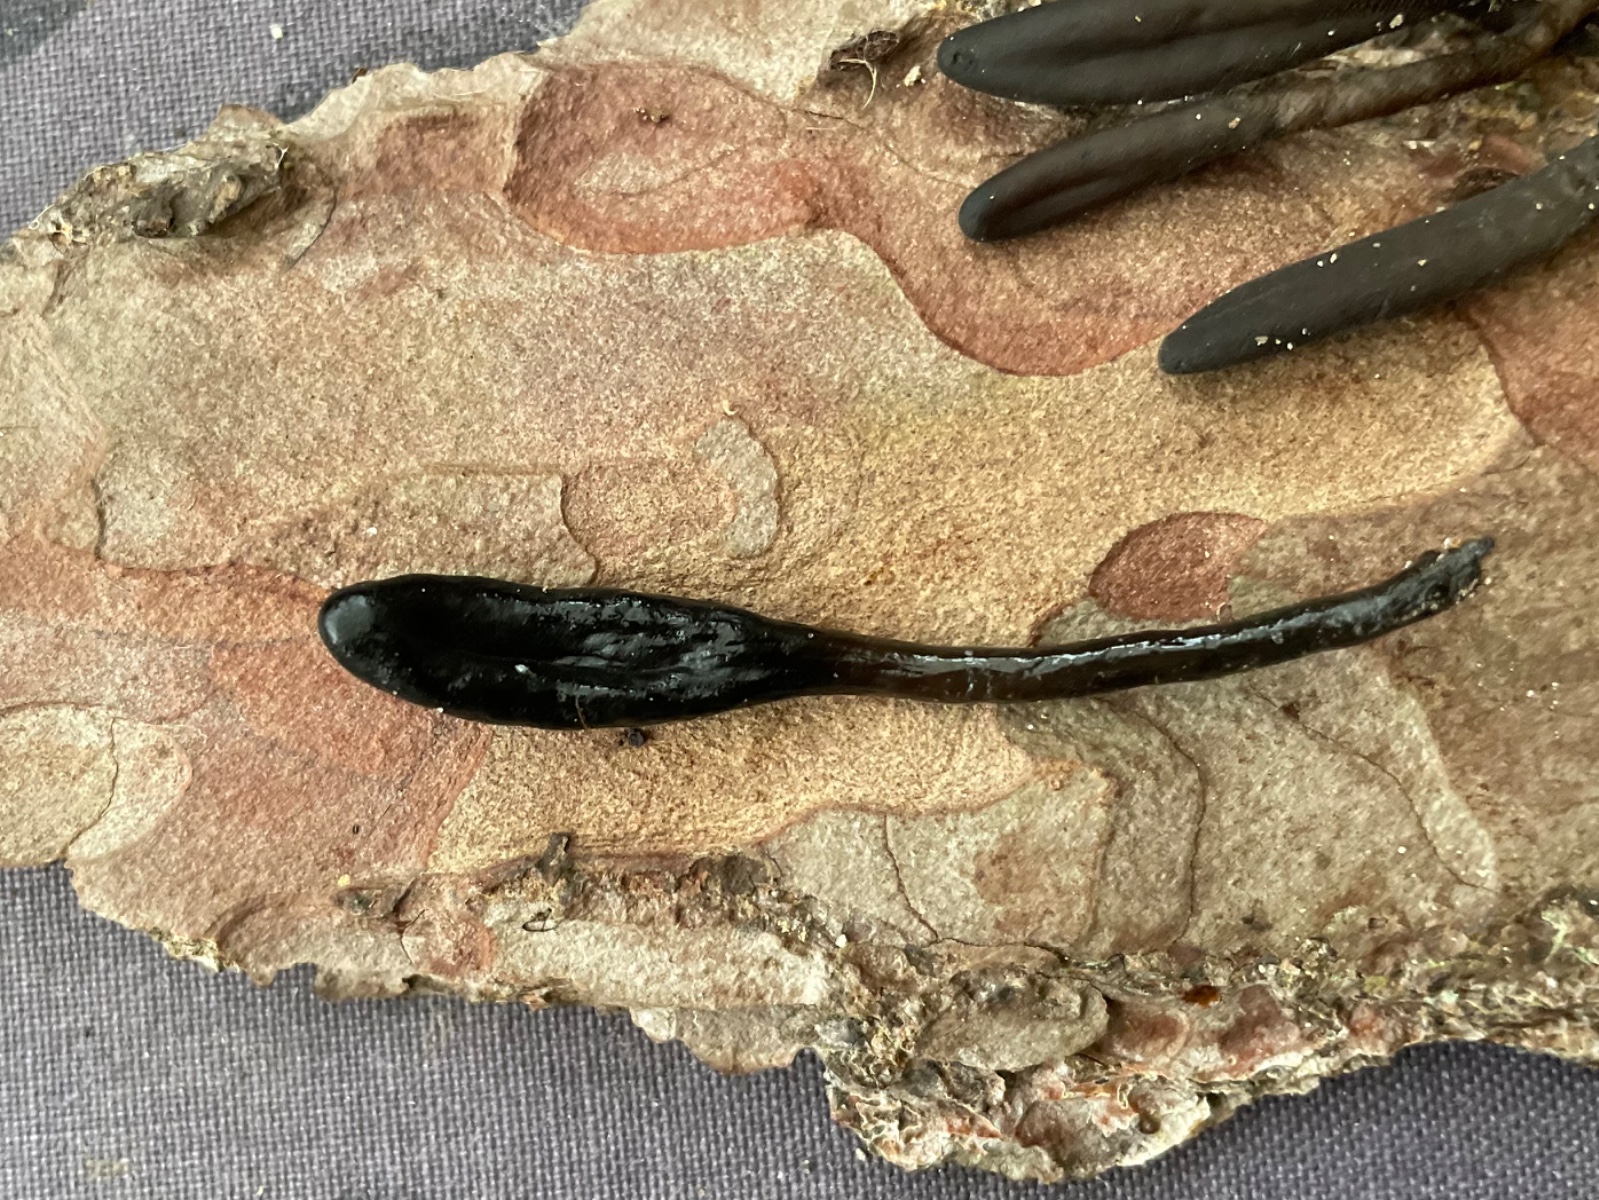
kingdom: Fungi
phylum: Ascomycota
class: Geoglossomycetes
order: Geoglossales
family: Geoglossaceae
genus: Glutinoglossum
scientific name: Glutinoglossum
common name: jordtunge
